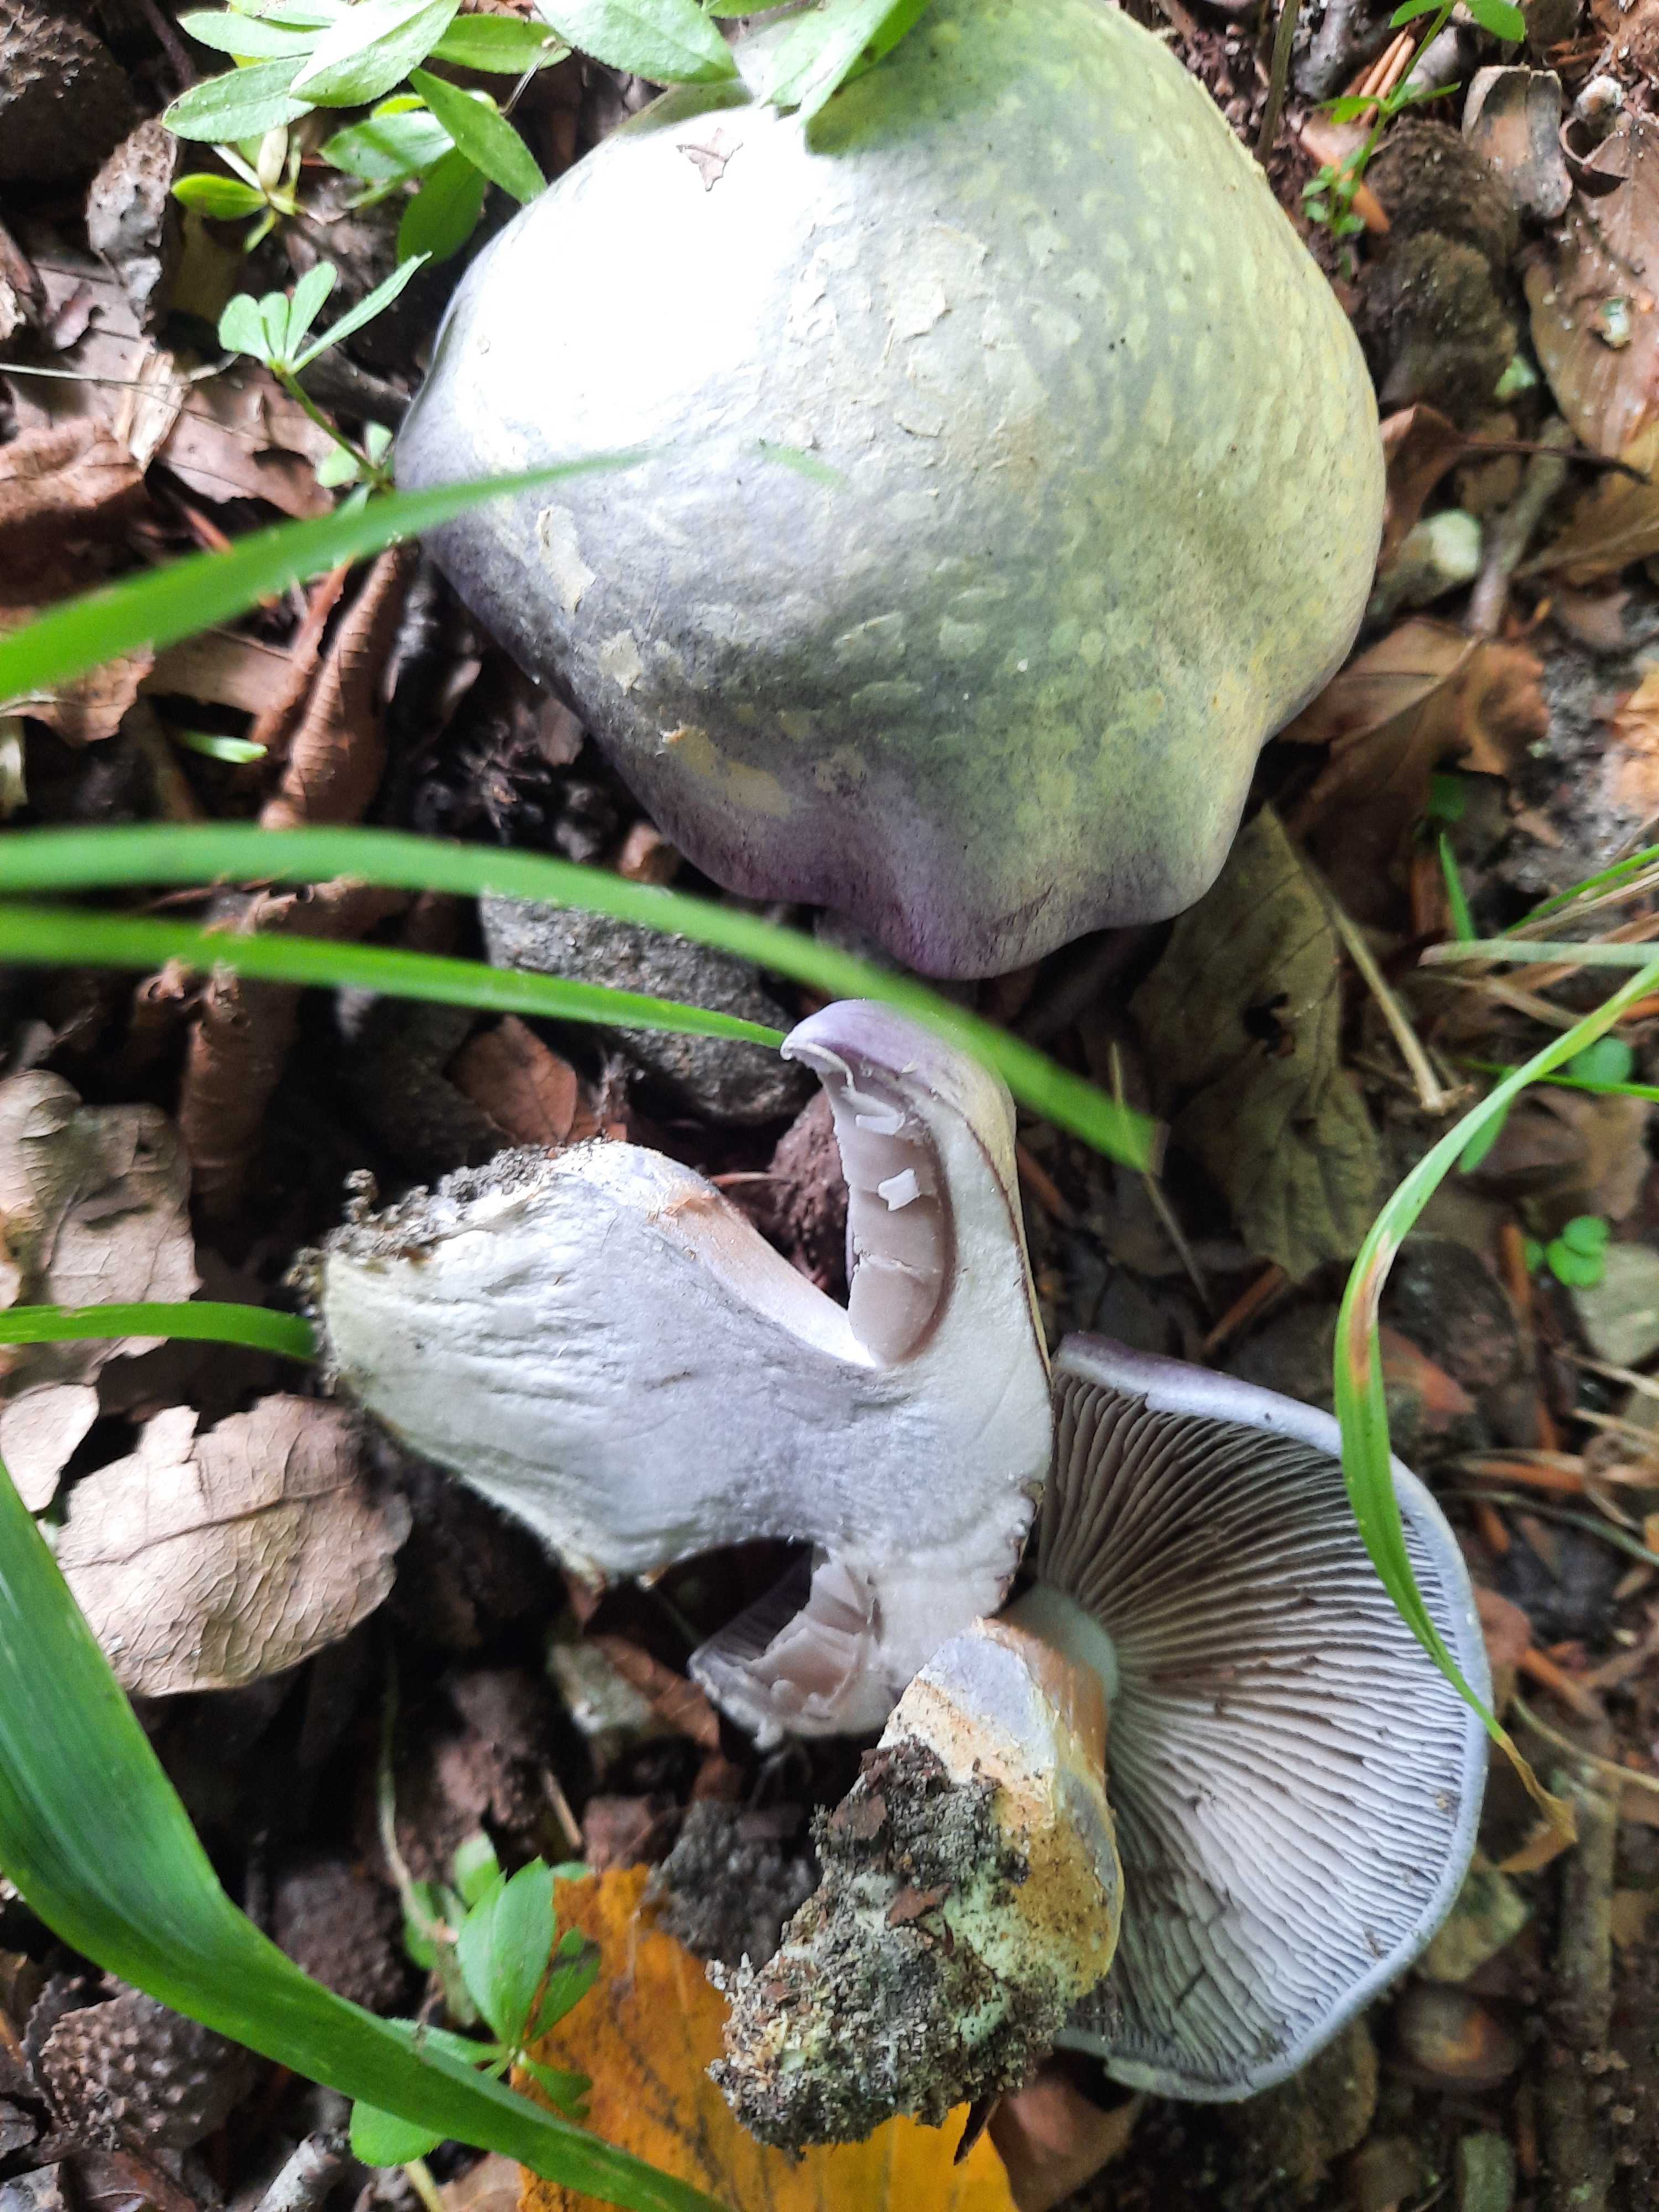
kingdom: Fungi
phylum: Basidiomycota
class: Agaricomycetes
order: Agaricales
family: Cortinariaceae
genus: Cortinarius
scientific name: Cortinarius caerulescens
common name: blåkødet slørhat
